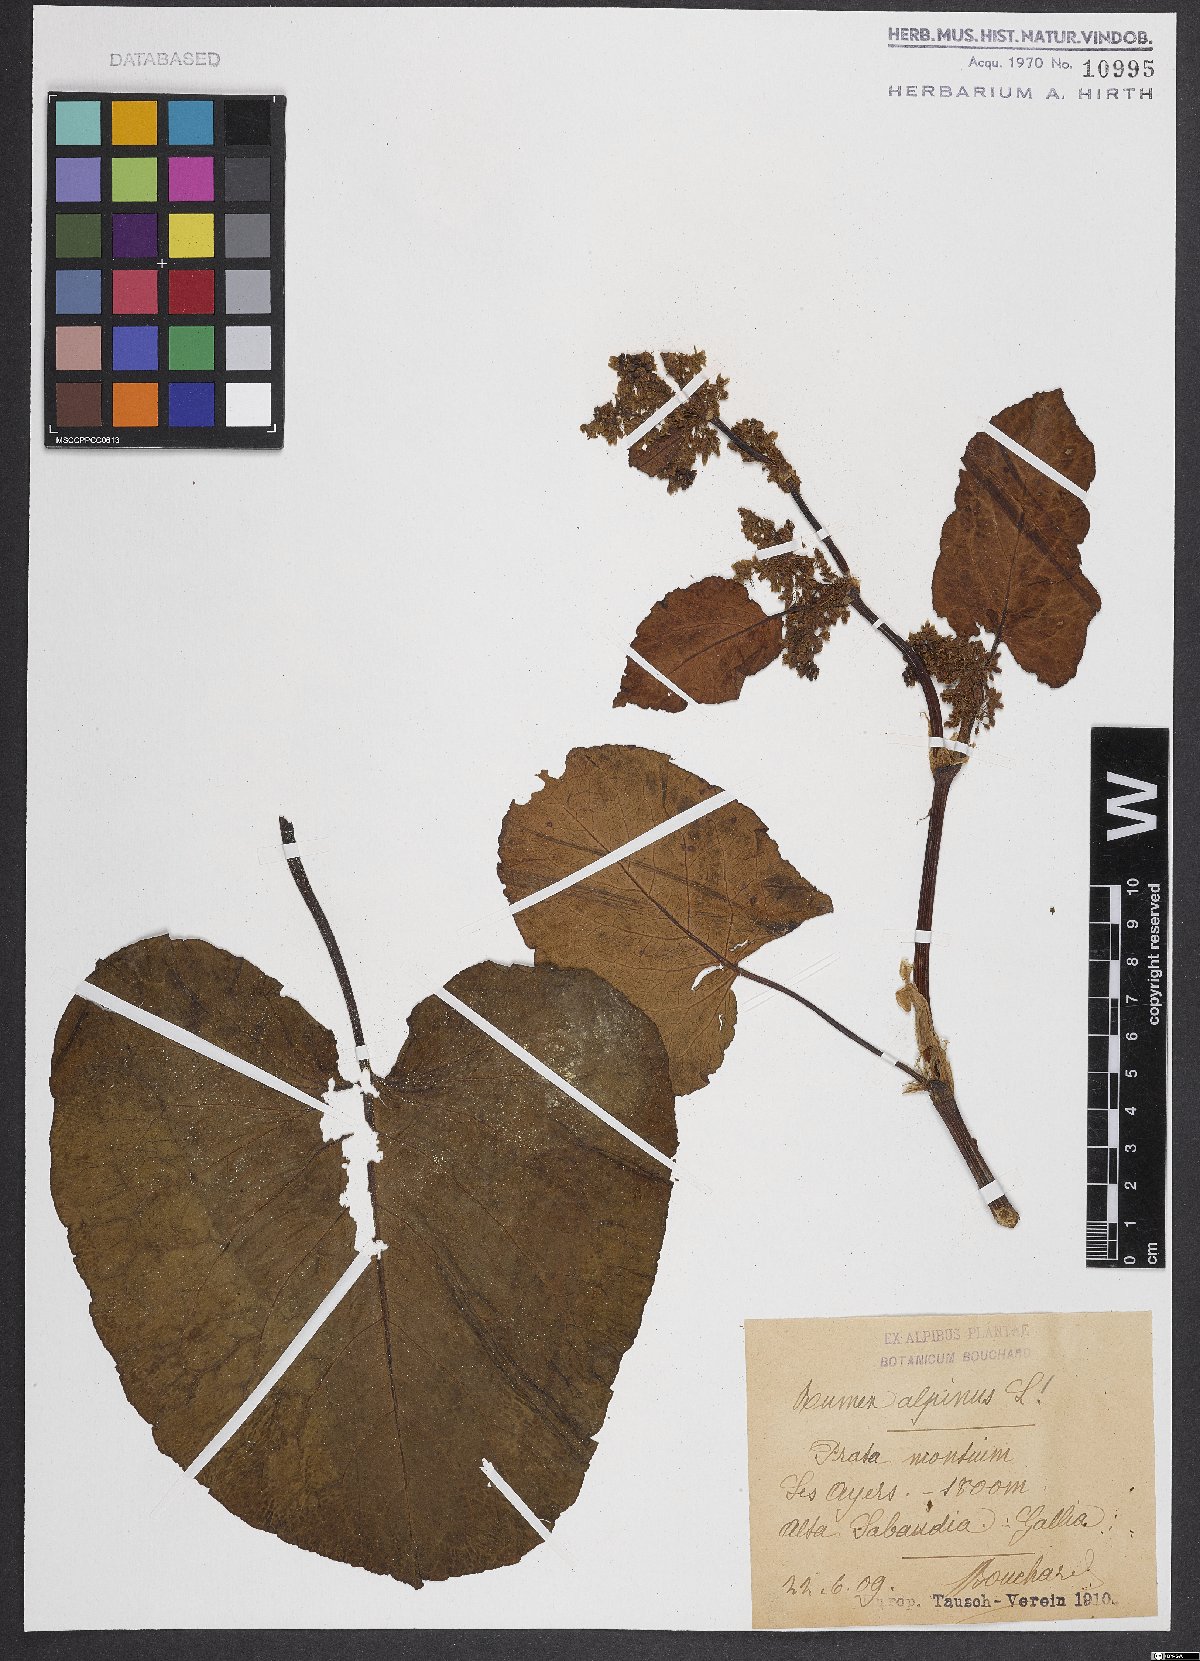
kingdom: Plantae
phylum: Tracheophyta
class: Magnoliopsida
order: Caryophyllales
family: Polygonaceae
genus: Rumex
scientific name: Rumex alpinus
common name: Alpine dock
